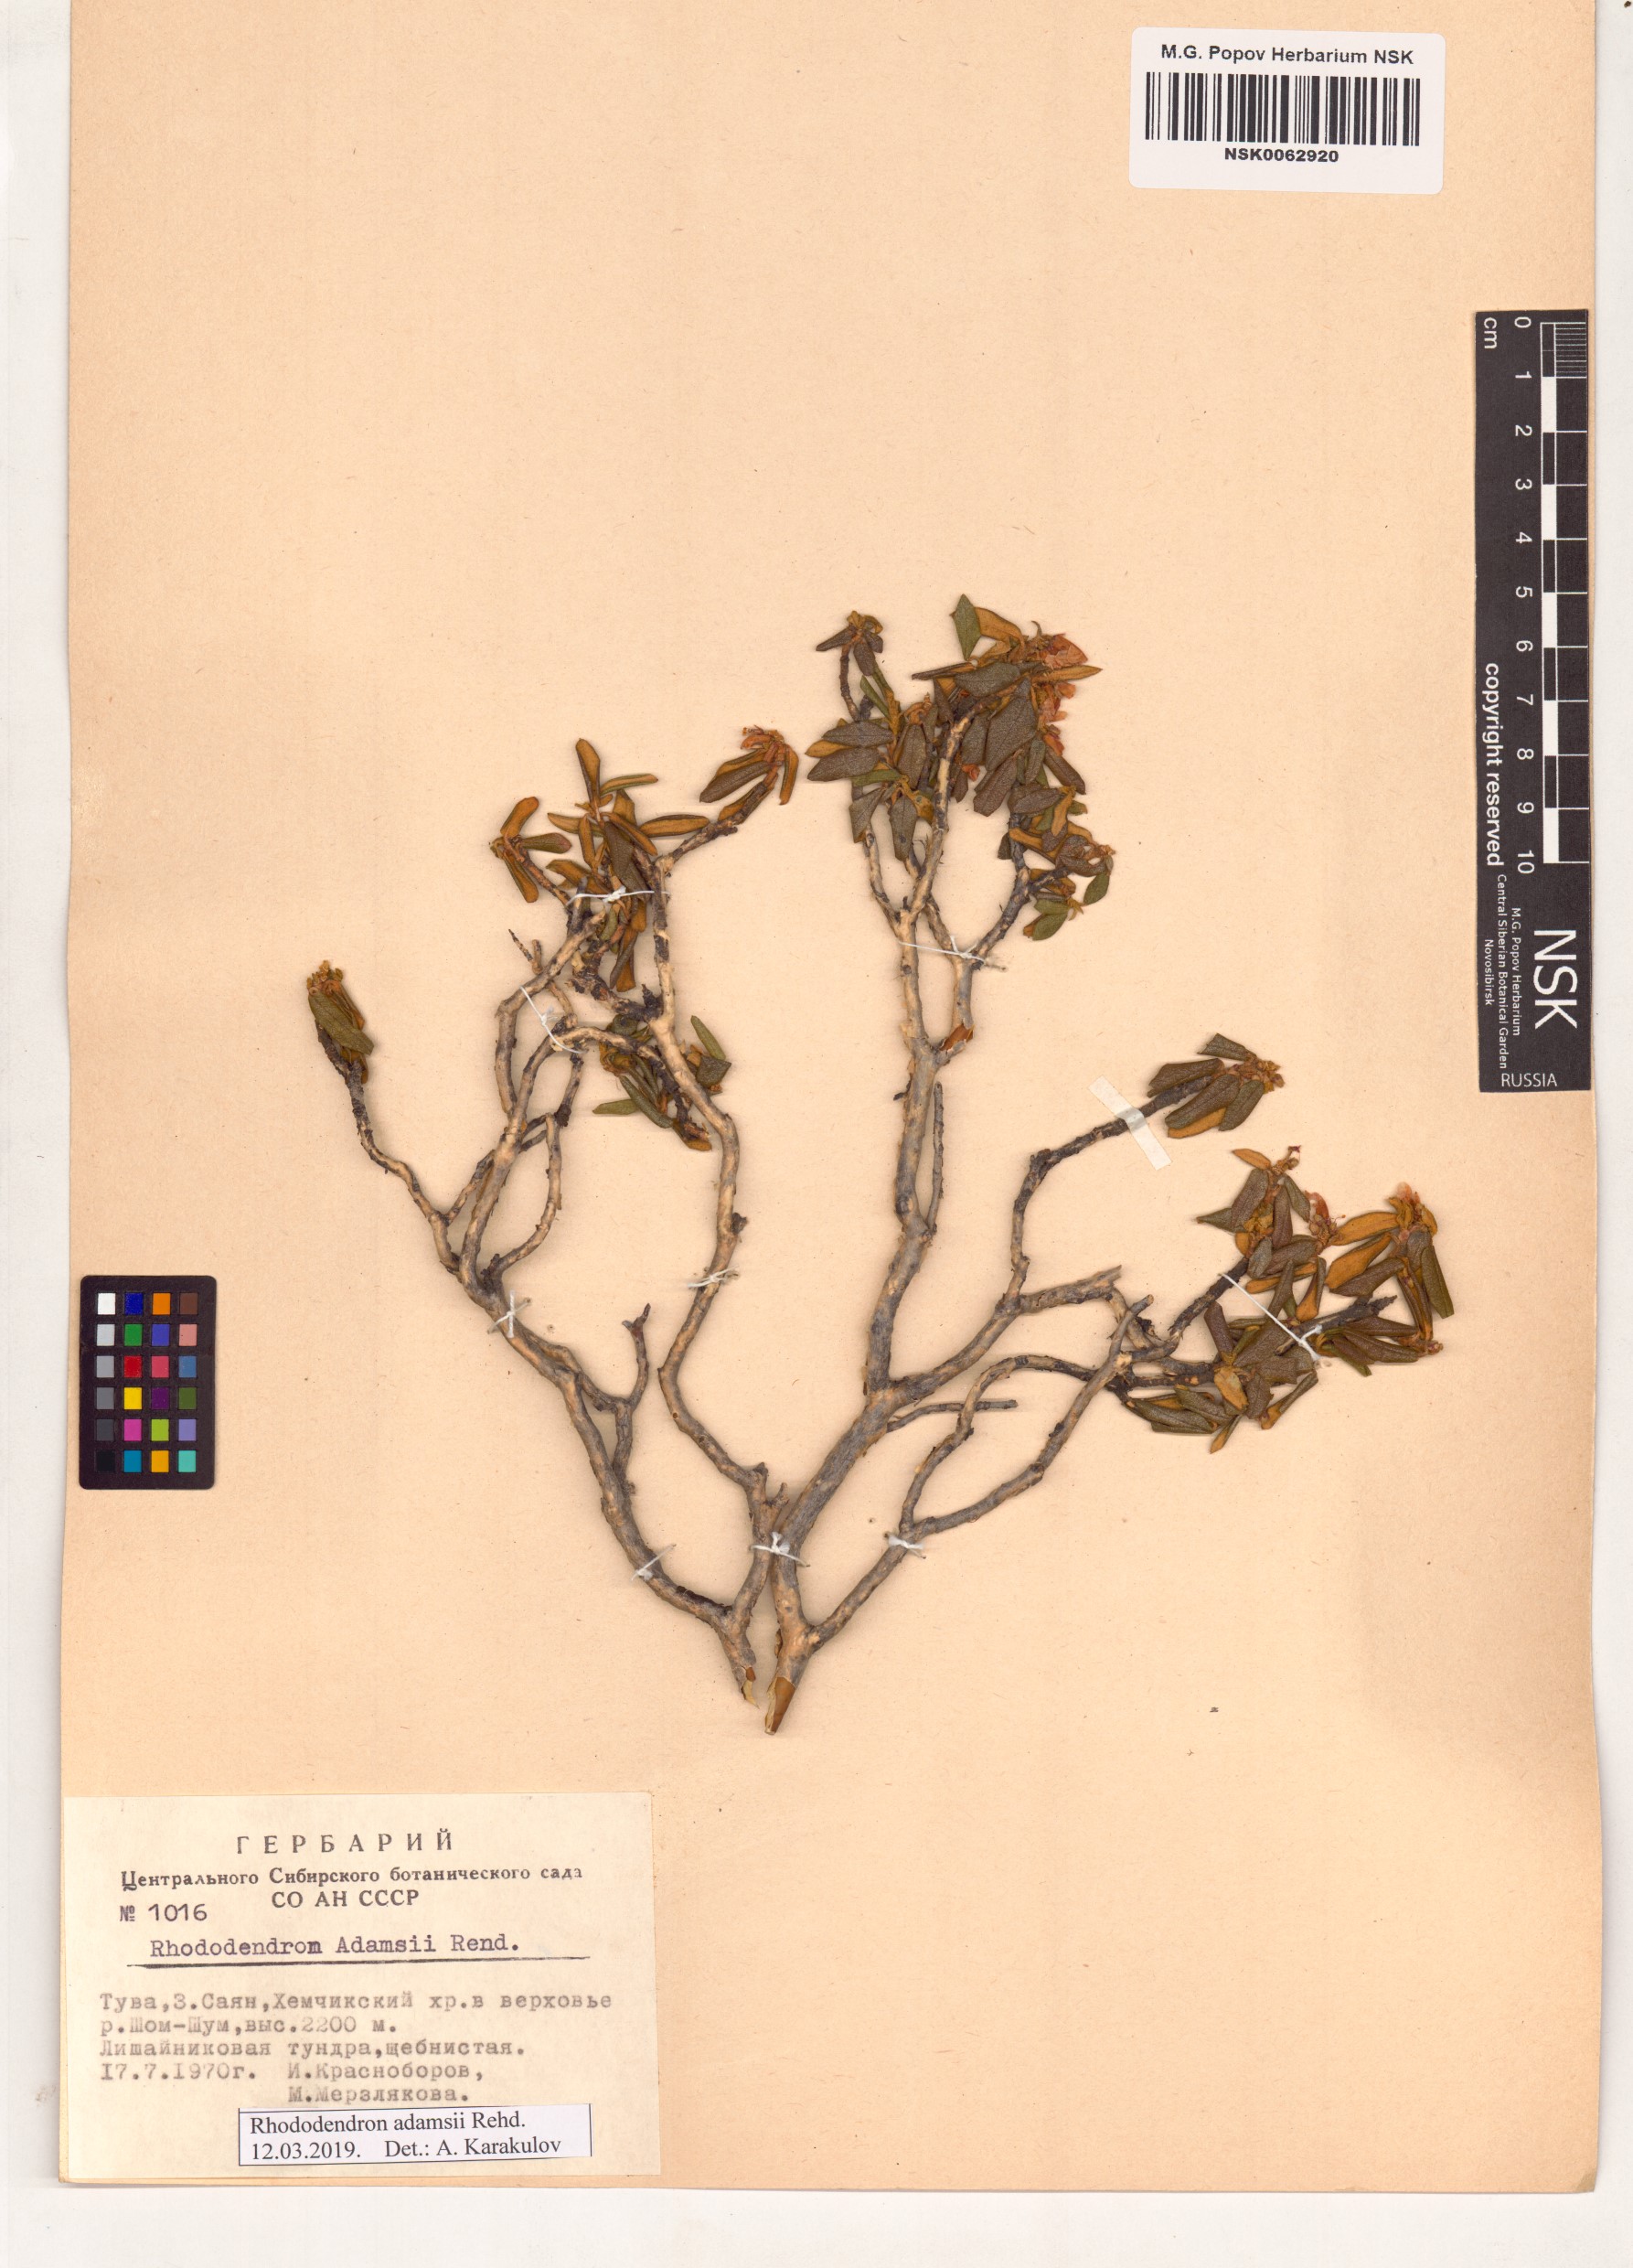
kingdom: Plantae
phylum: Tracheophyta
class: Magnoliopsida
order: Ericales
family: Ericaceae
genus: Rhododendron
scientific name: Rhododendron adamsii
